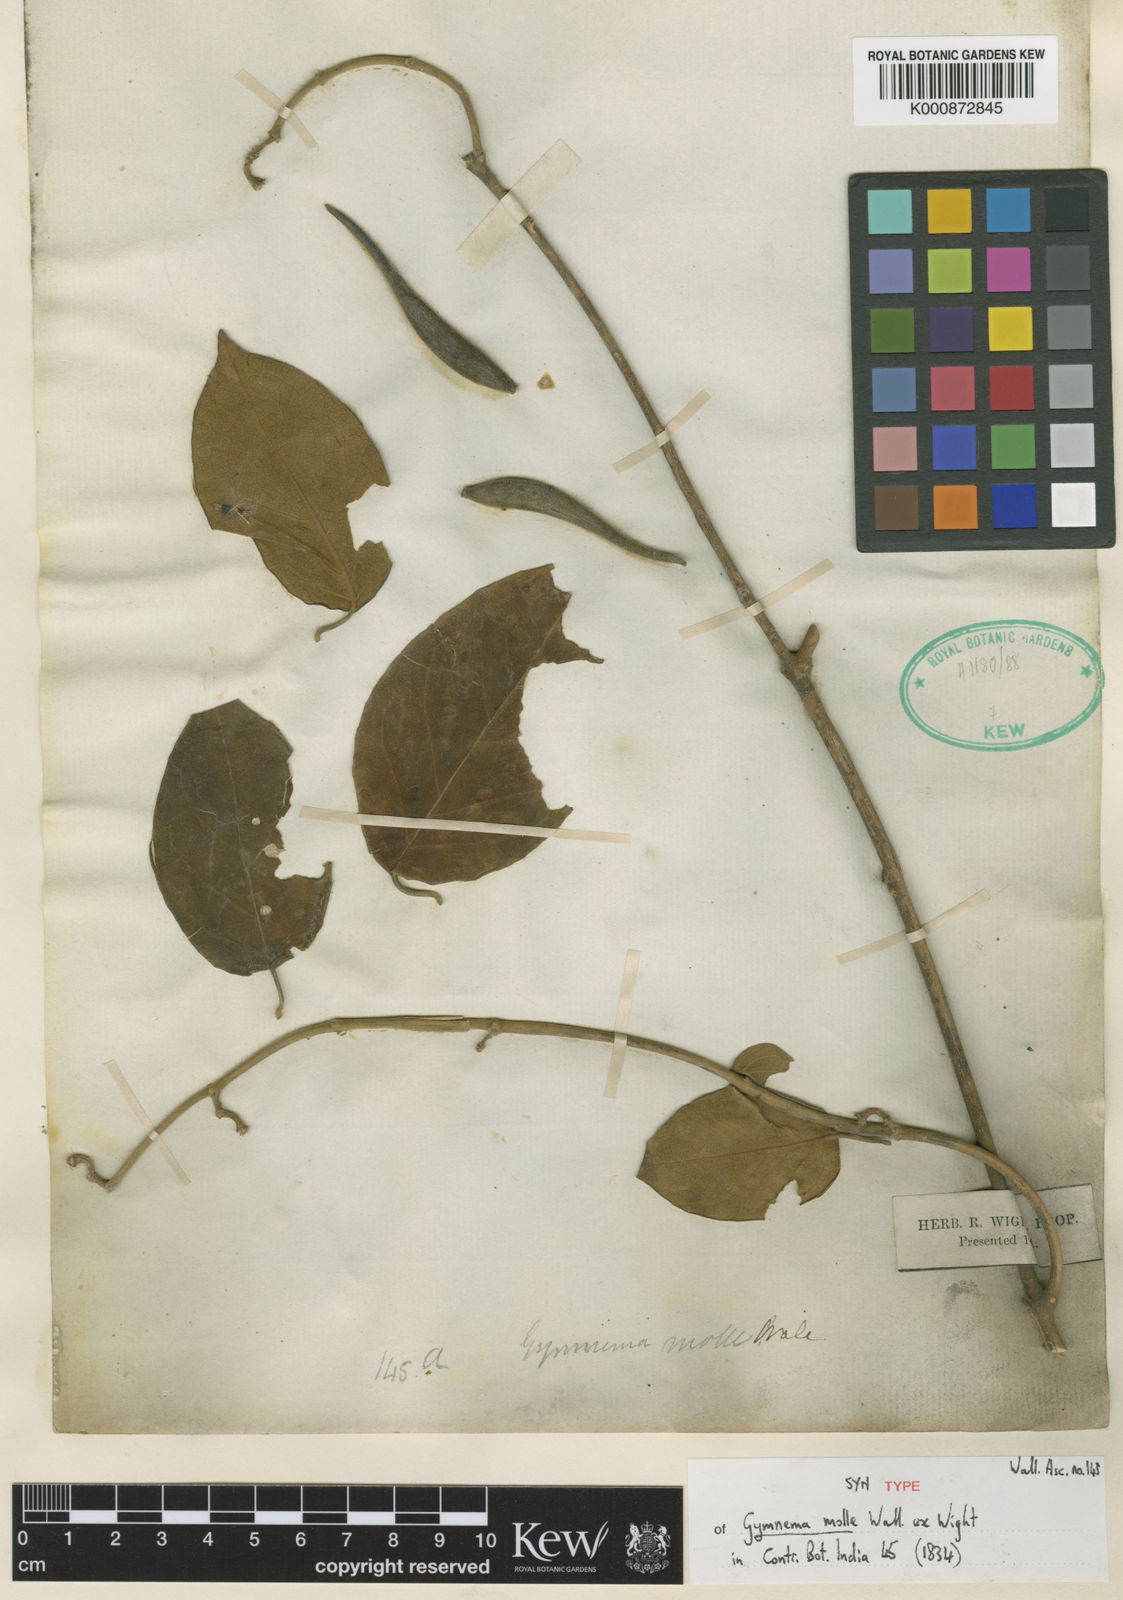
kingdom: Plantae
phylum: Tracheophyta
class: Magnoliopsida
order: Gentianales
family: Apocynaceae
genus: Gymnema
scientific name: Gymnema molle
